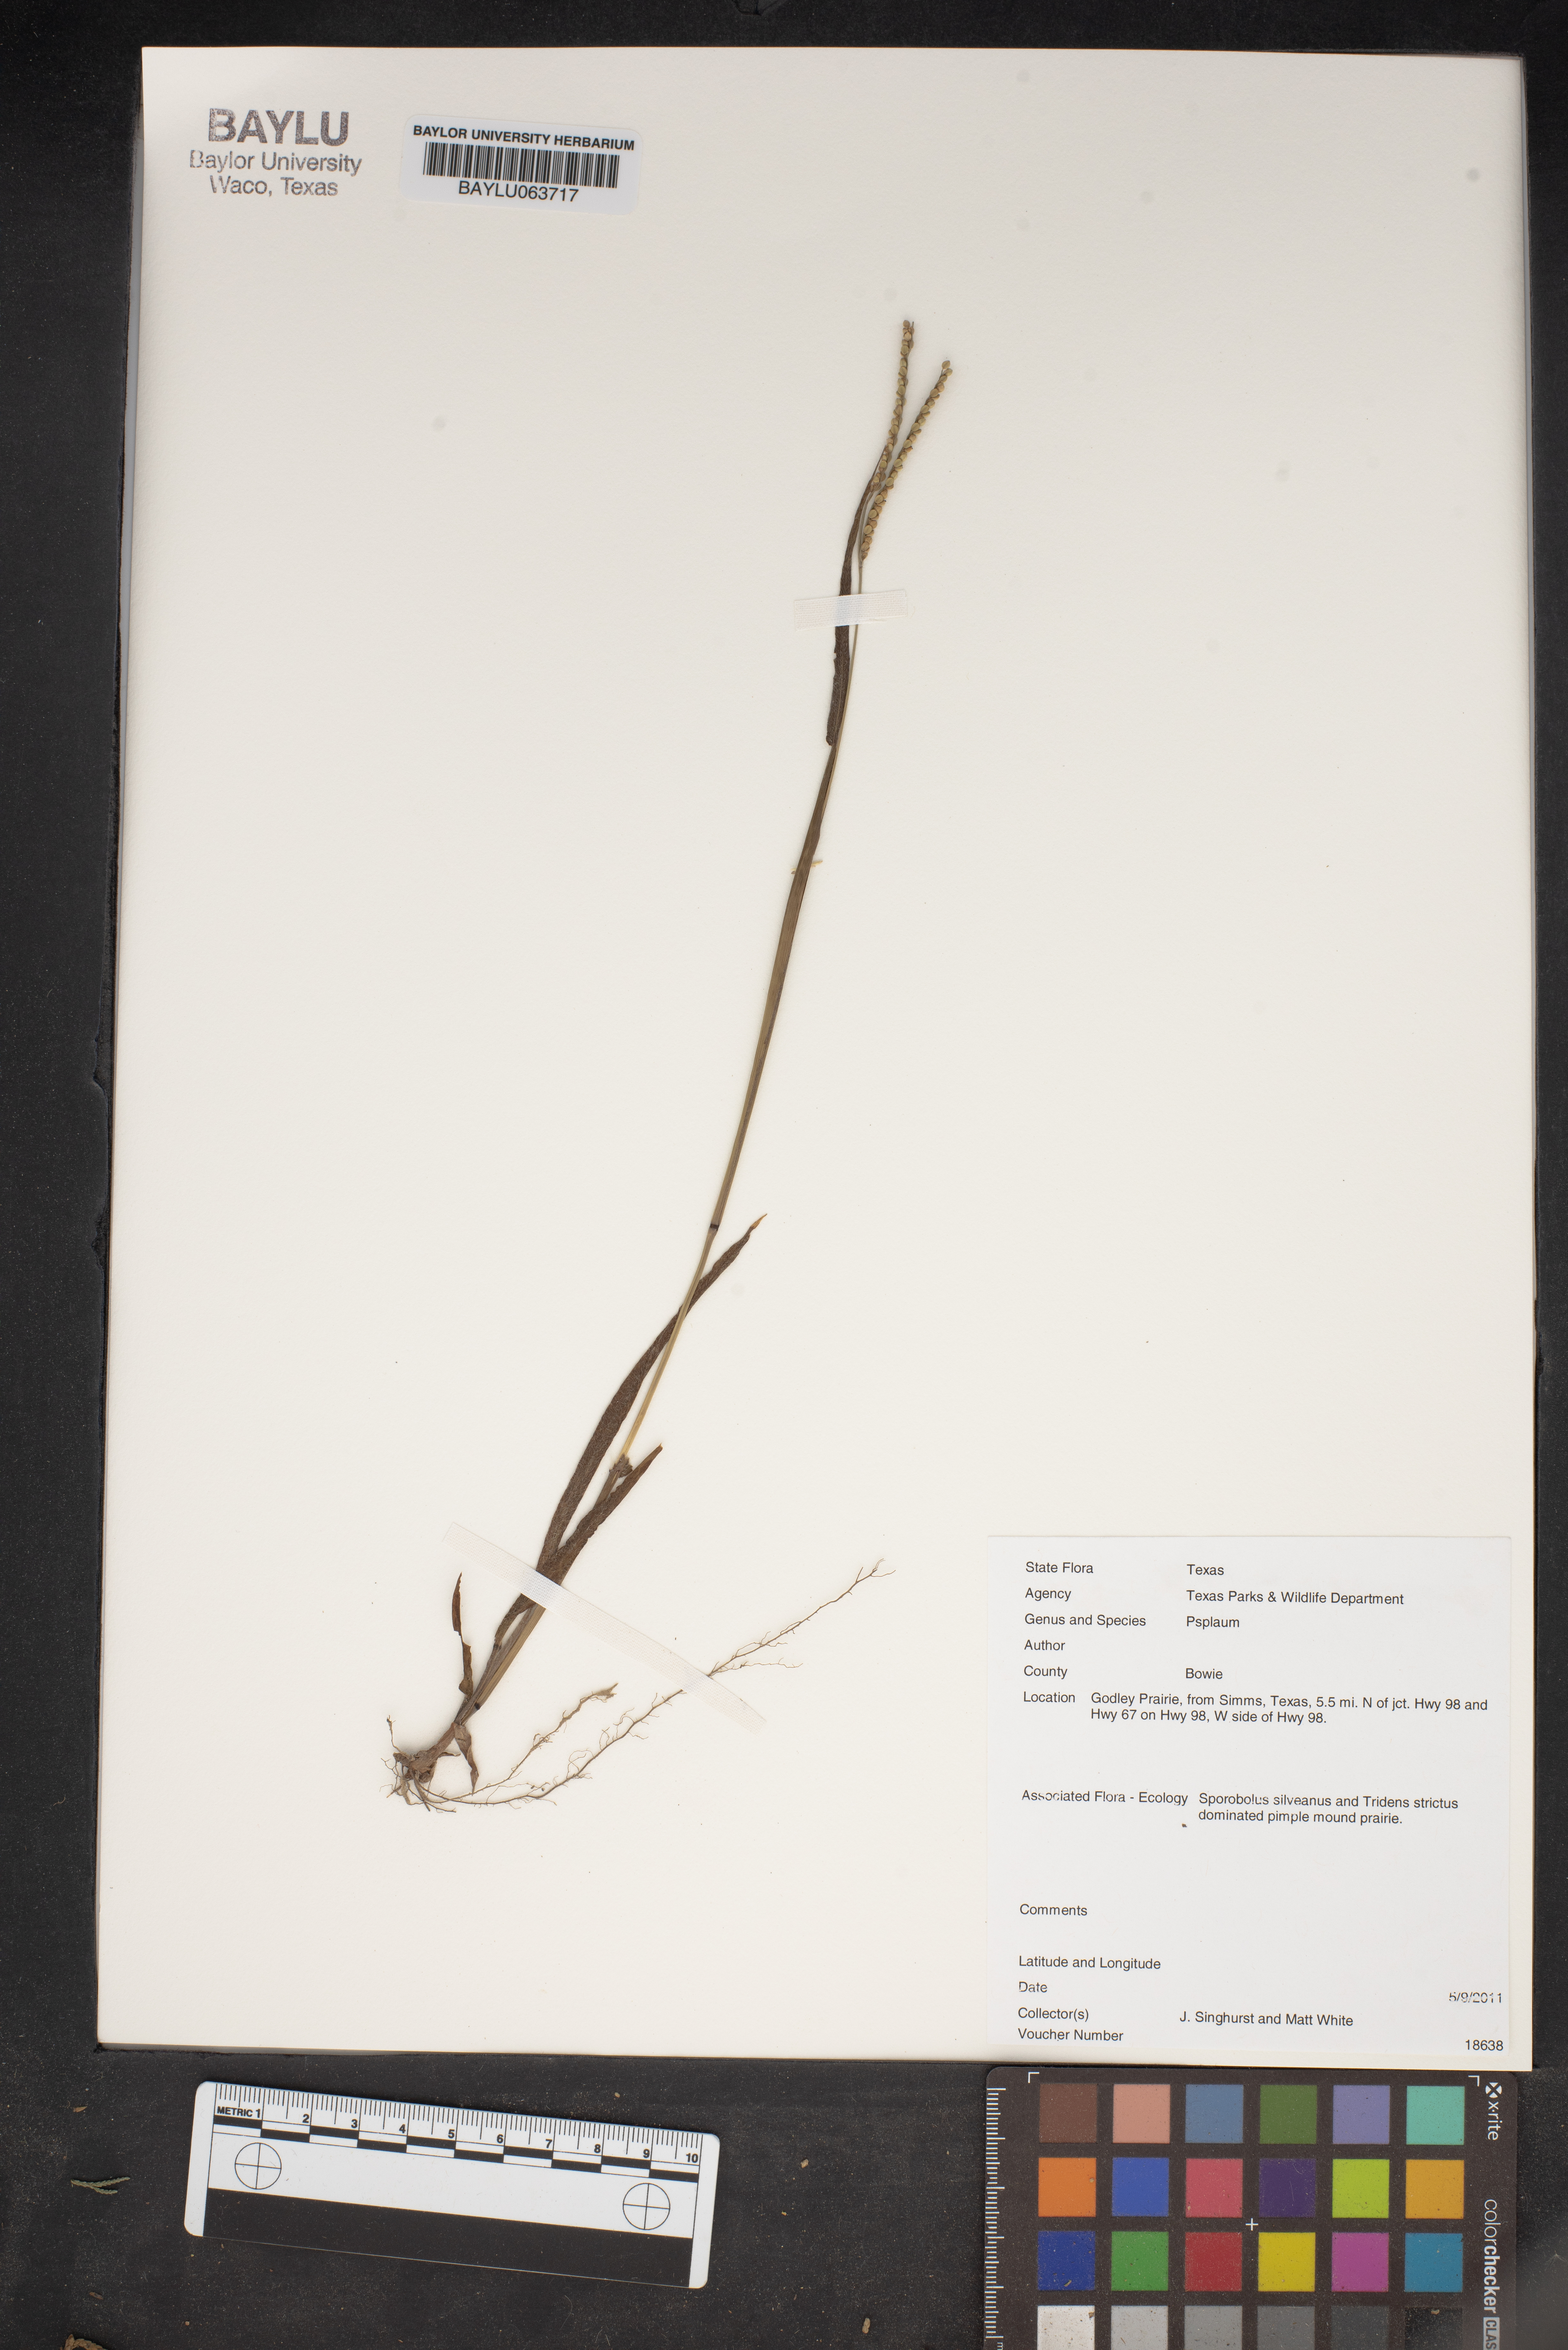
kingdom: Plantae
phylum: Tracheophyta
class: Liliopsida
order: Poales
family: Poaceae
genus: Paspalum
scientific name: Paspalum
